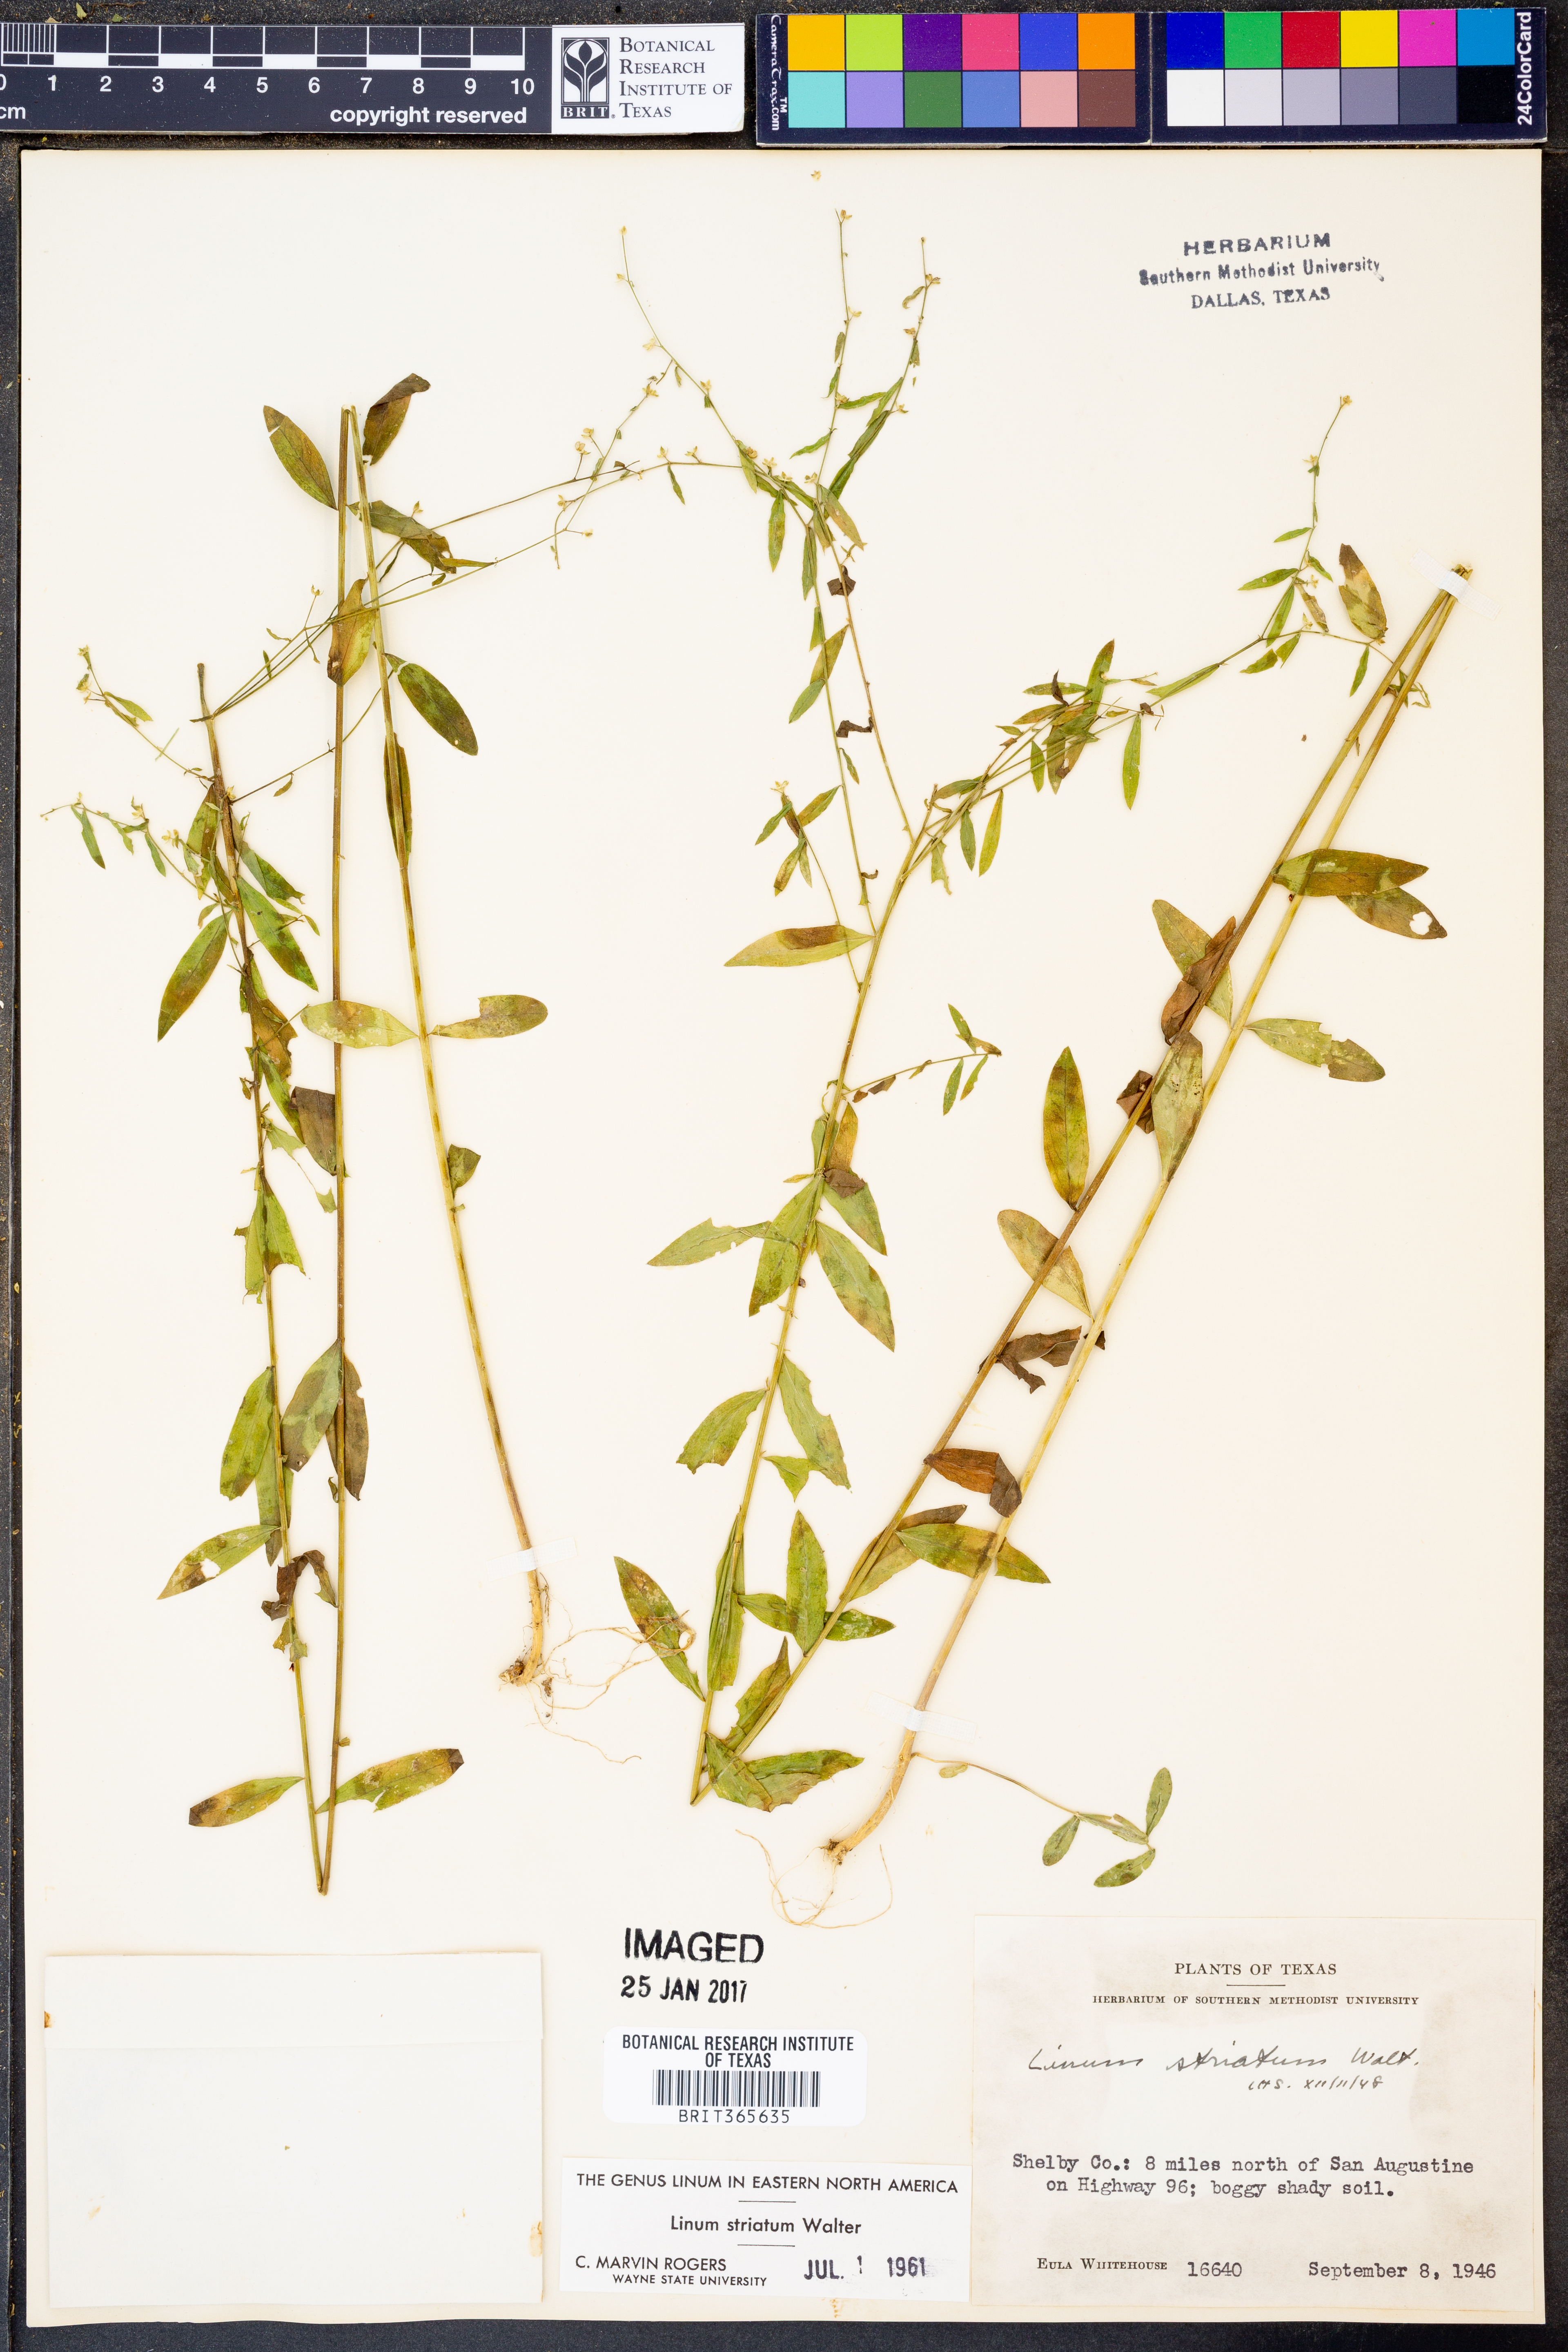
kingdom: Plantae
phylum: Tracheophyta
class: Magnoliopsida
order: Malpighiales
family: Linaceae
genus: Linum
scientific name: Linum striatum
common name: Ridged yellow flax
